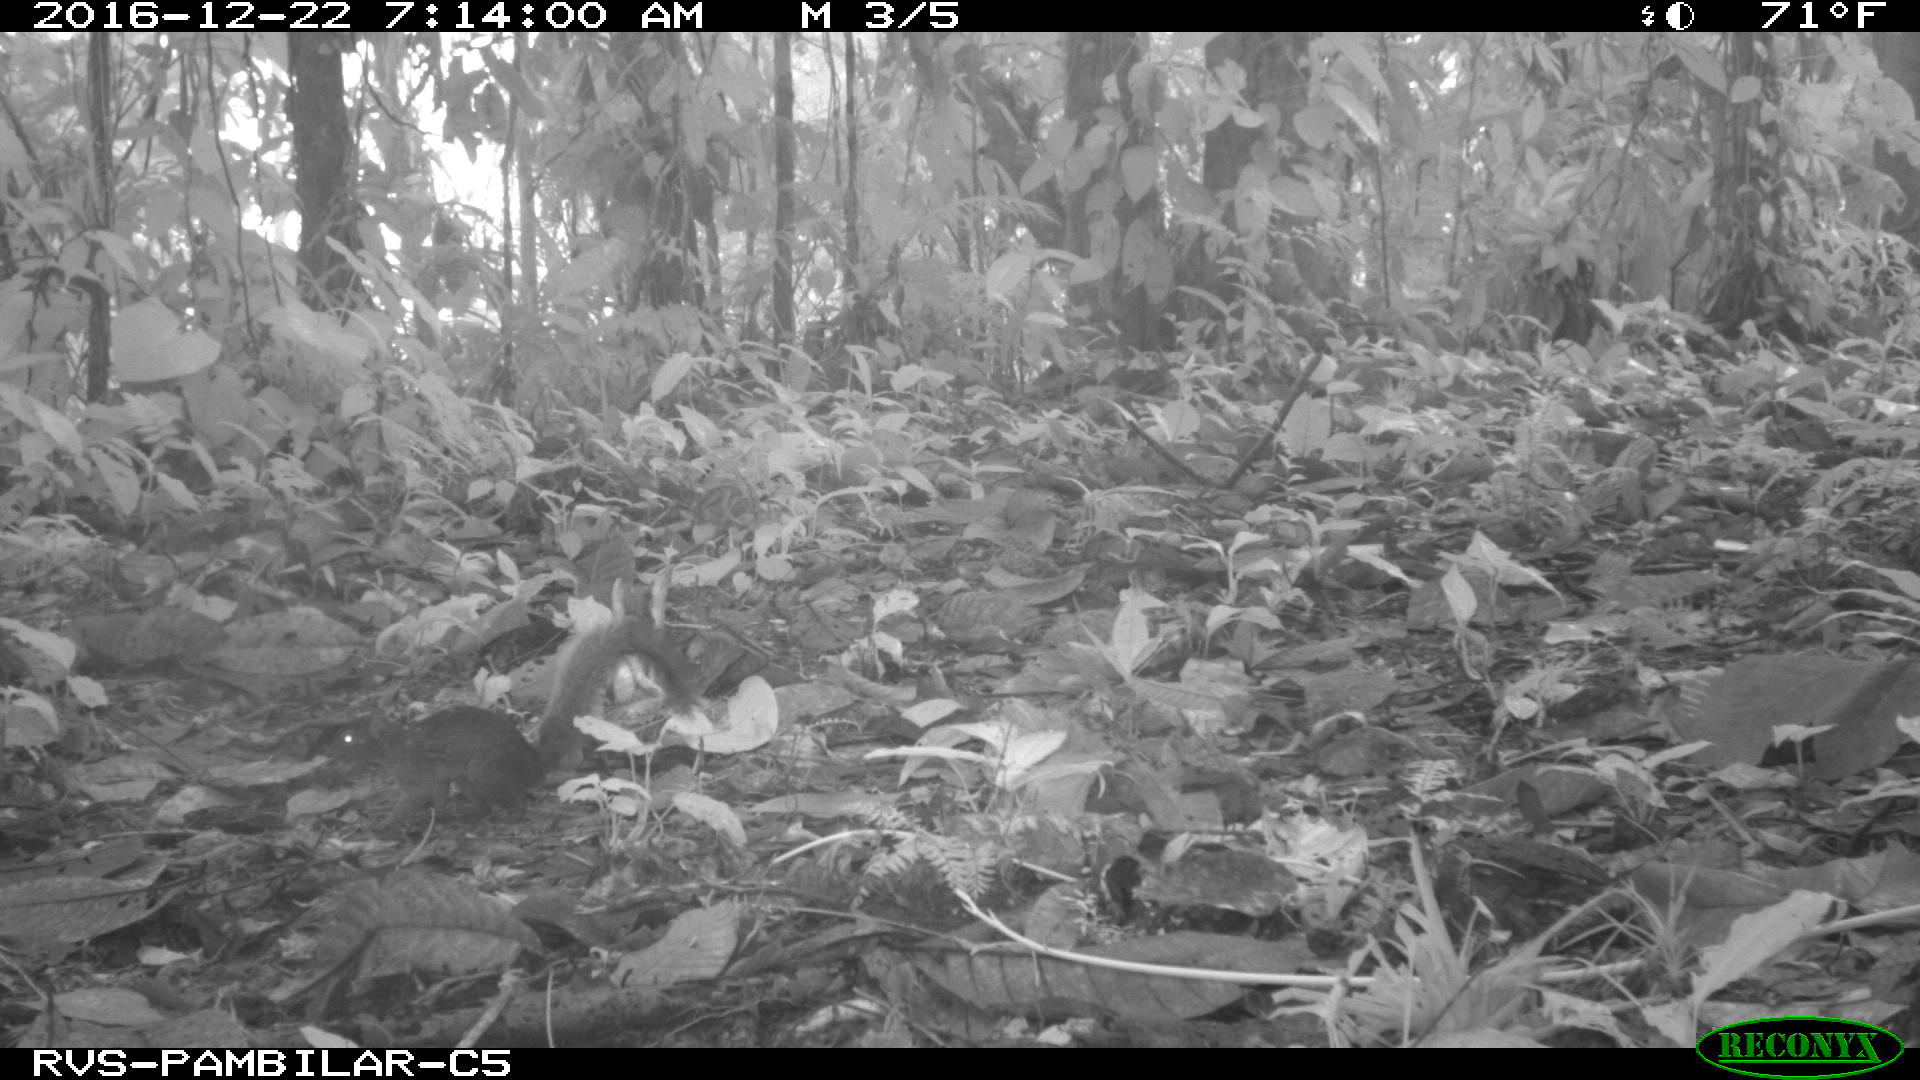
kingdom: Animalia
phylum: Chordata
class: Mammalia
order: Rodentia
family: Sciuridae
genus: Sciurus
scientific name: Sciurus granatensis
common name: Red-tailed squirrel
